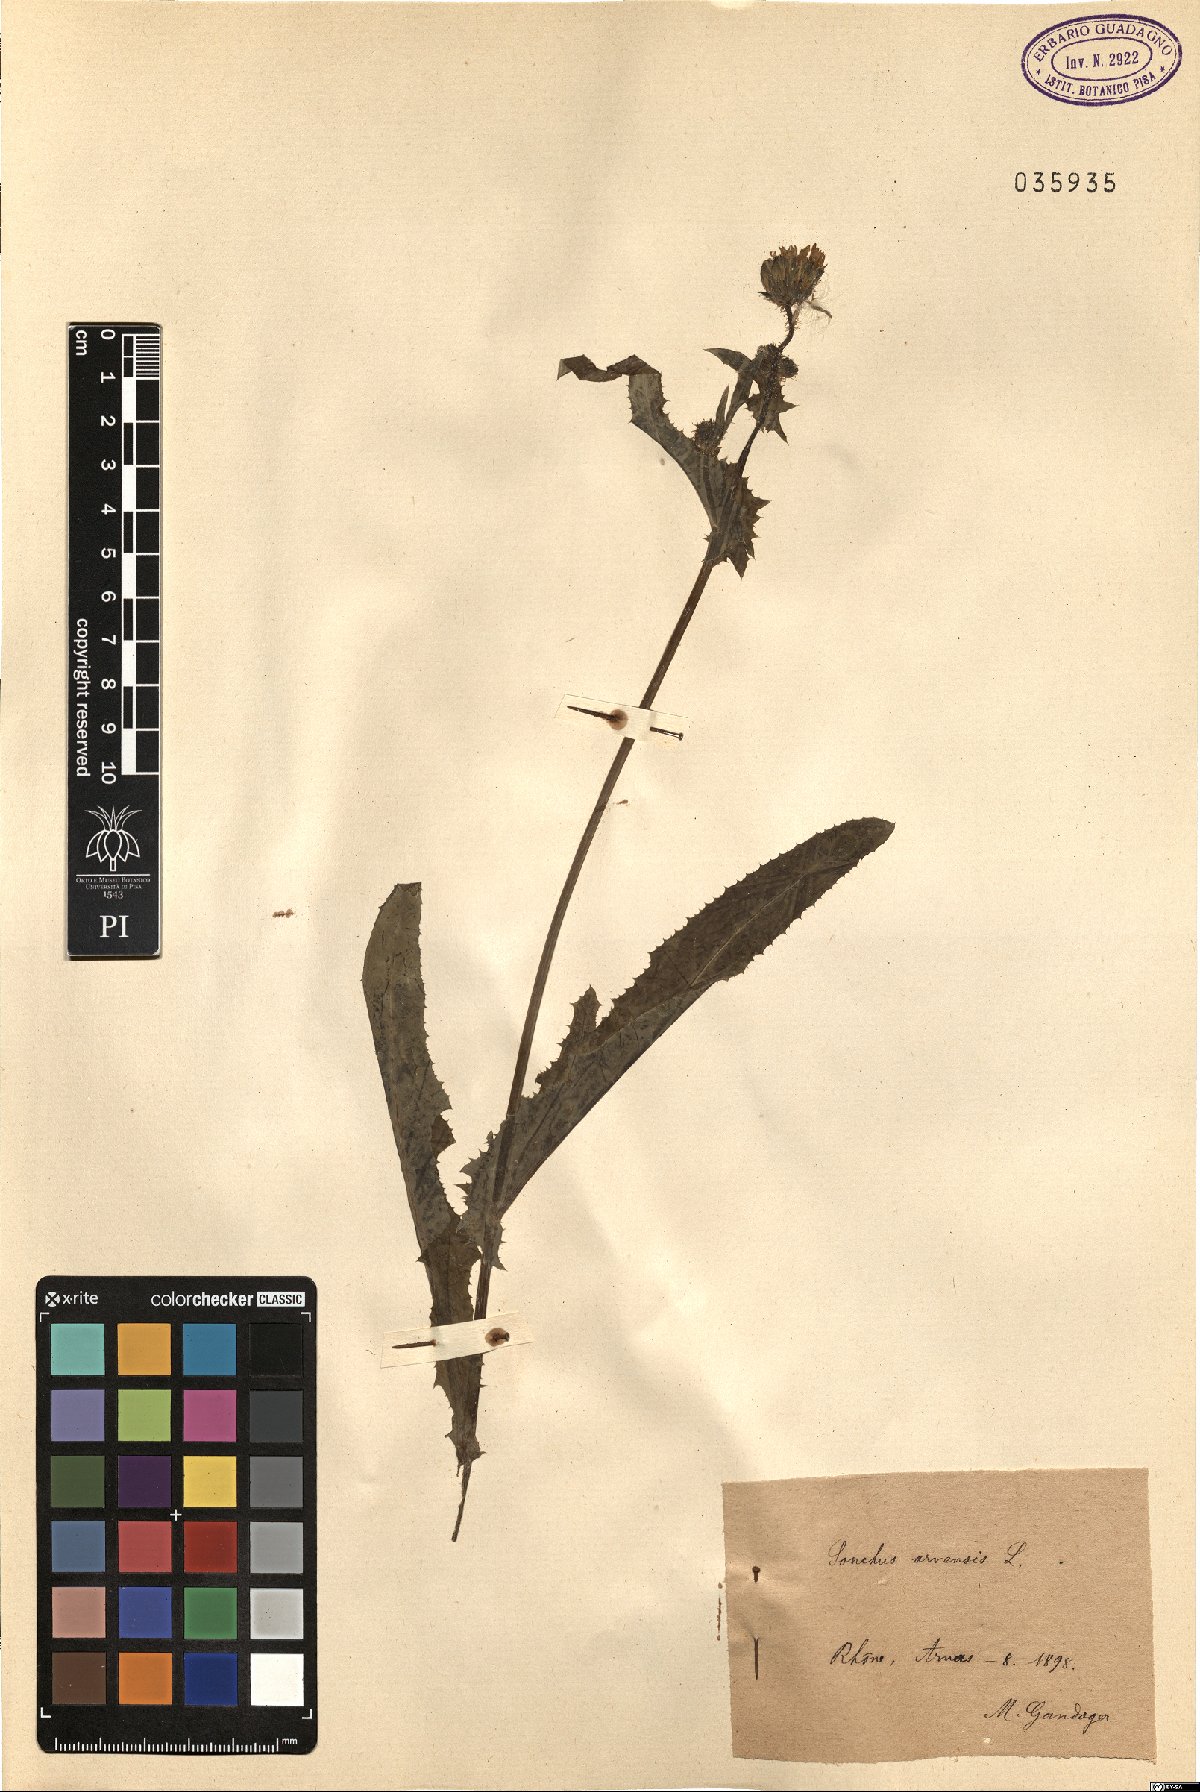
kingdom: Plantae
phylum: Tracheophyta
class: Magnoliopsida
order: Asterales
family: Asteraceae
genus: Sonchus
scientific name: Sonchus arvensis
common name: Perennial sow-thistle
